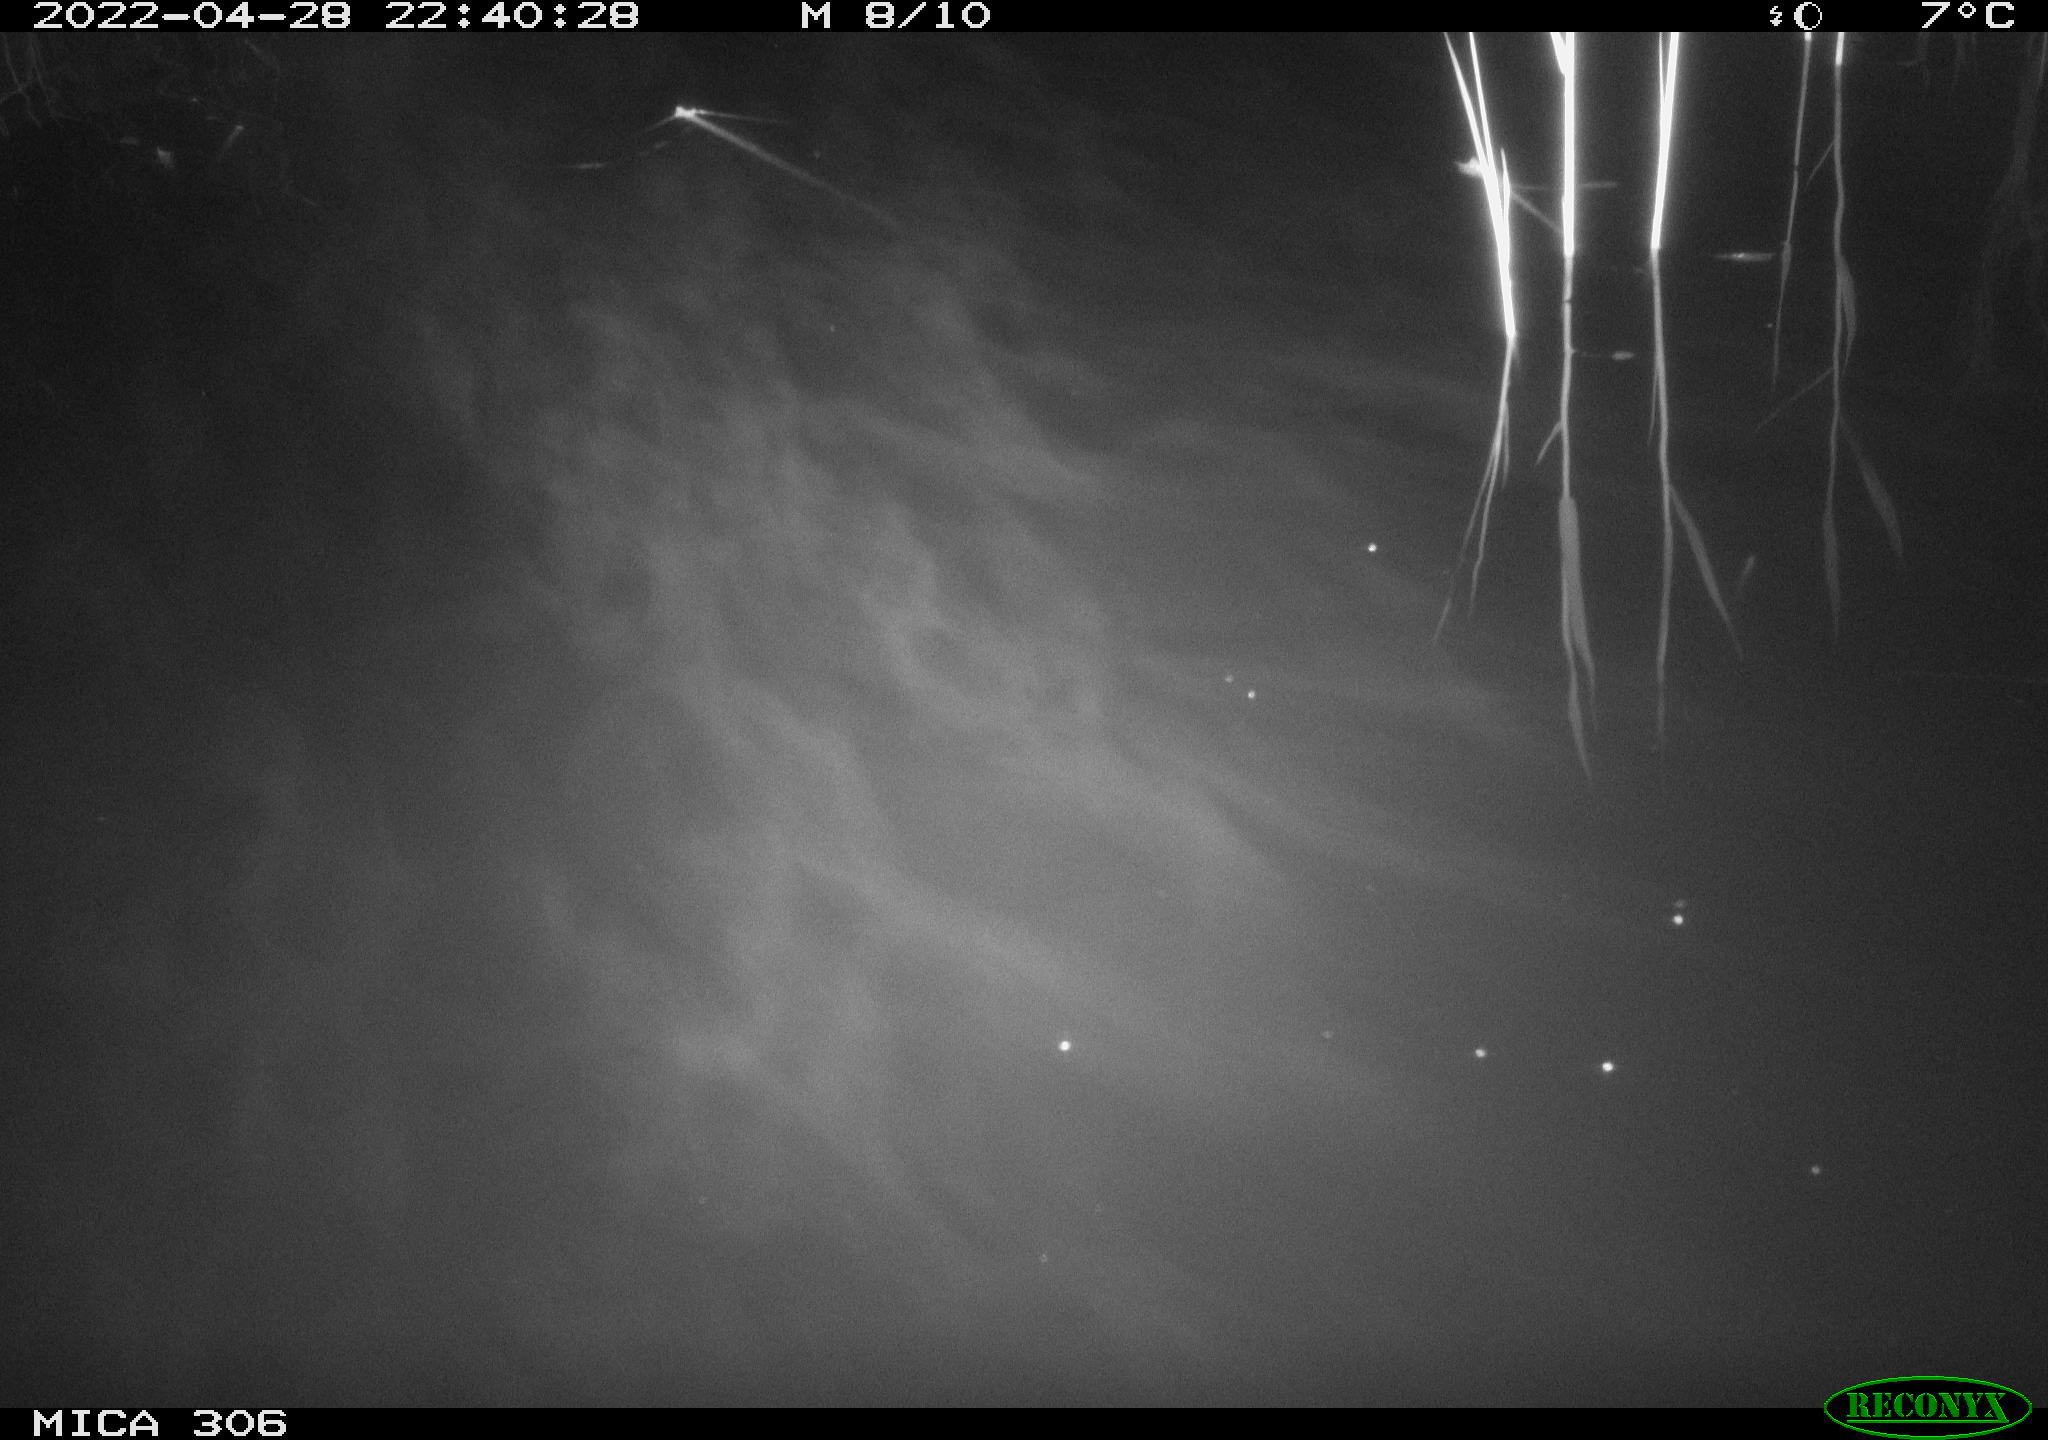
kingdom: Animalia
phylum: Chordata
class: Mammalia
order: Rodentia
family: Muridae
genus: Rattus
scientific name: Rattus norvegicus
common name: Brown rat
